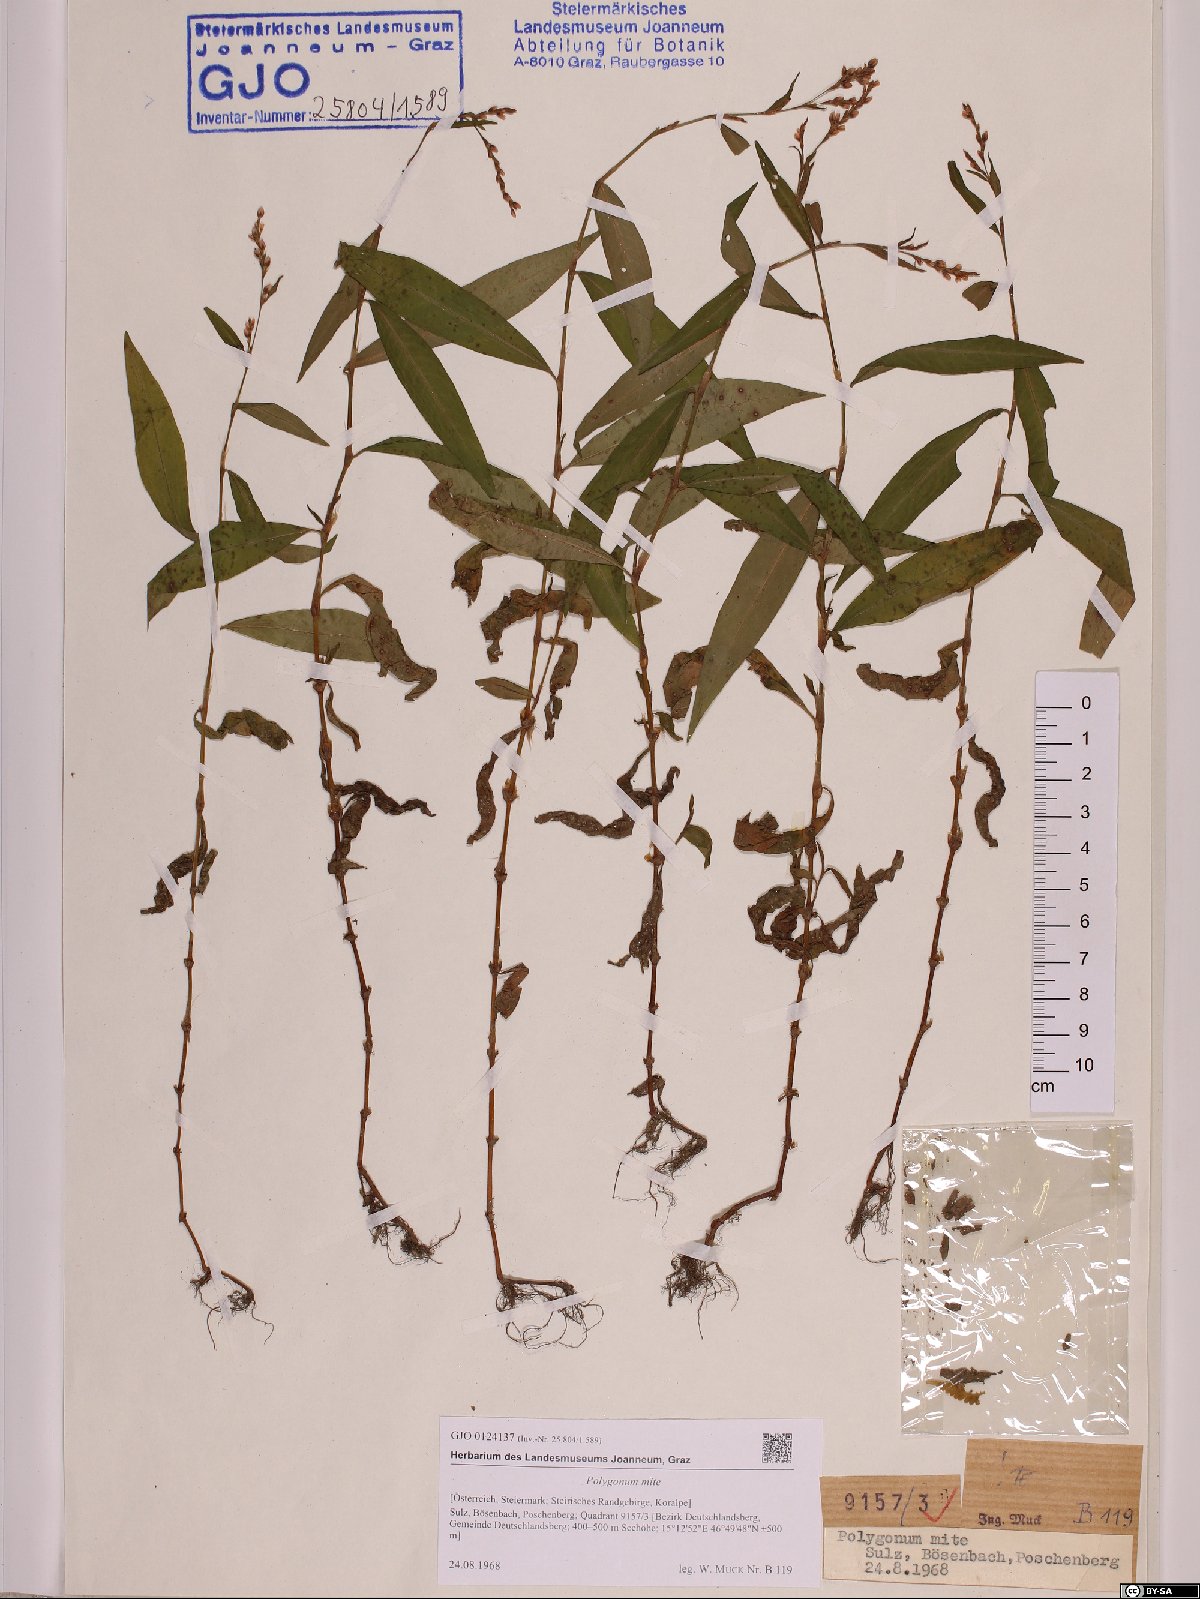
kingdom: Plantae
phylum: Tracheophyta
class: Magnoliopsida
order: Caryophyllales
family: Polygonaceae
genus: Persicaria
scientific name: Persicaria mitis
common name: Tasteless water-pepper
